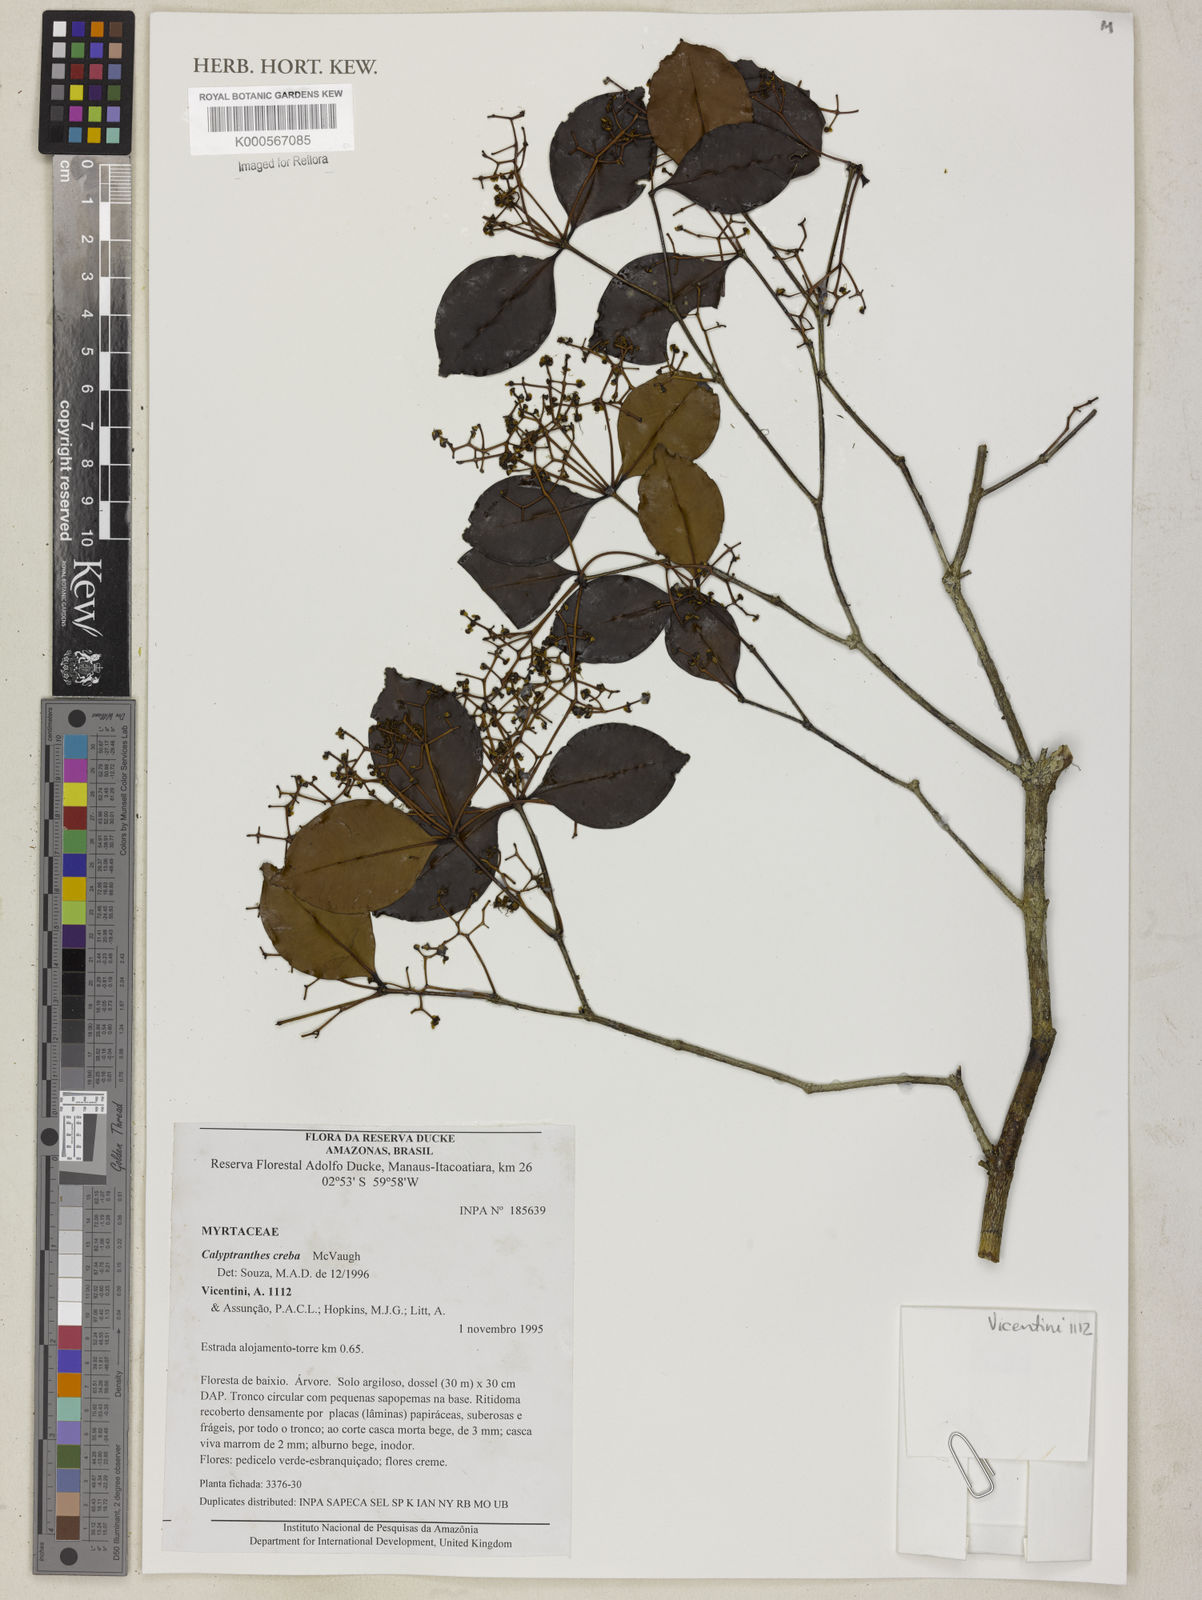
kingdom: Plantae
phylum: Tracheophyta
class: Magnoliopsida
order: Myrtales
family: Myrtaceae
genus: Myrcia
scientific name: Myrcia crebra
